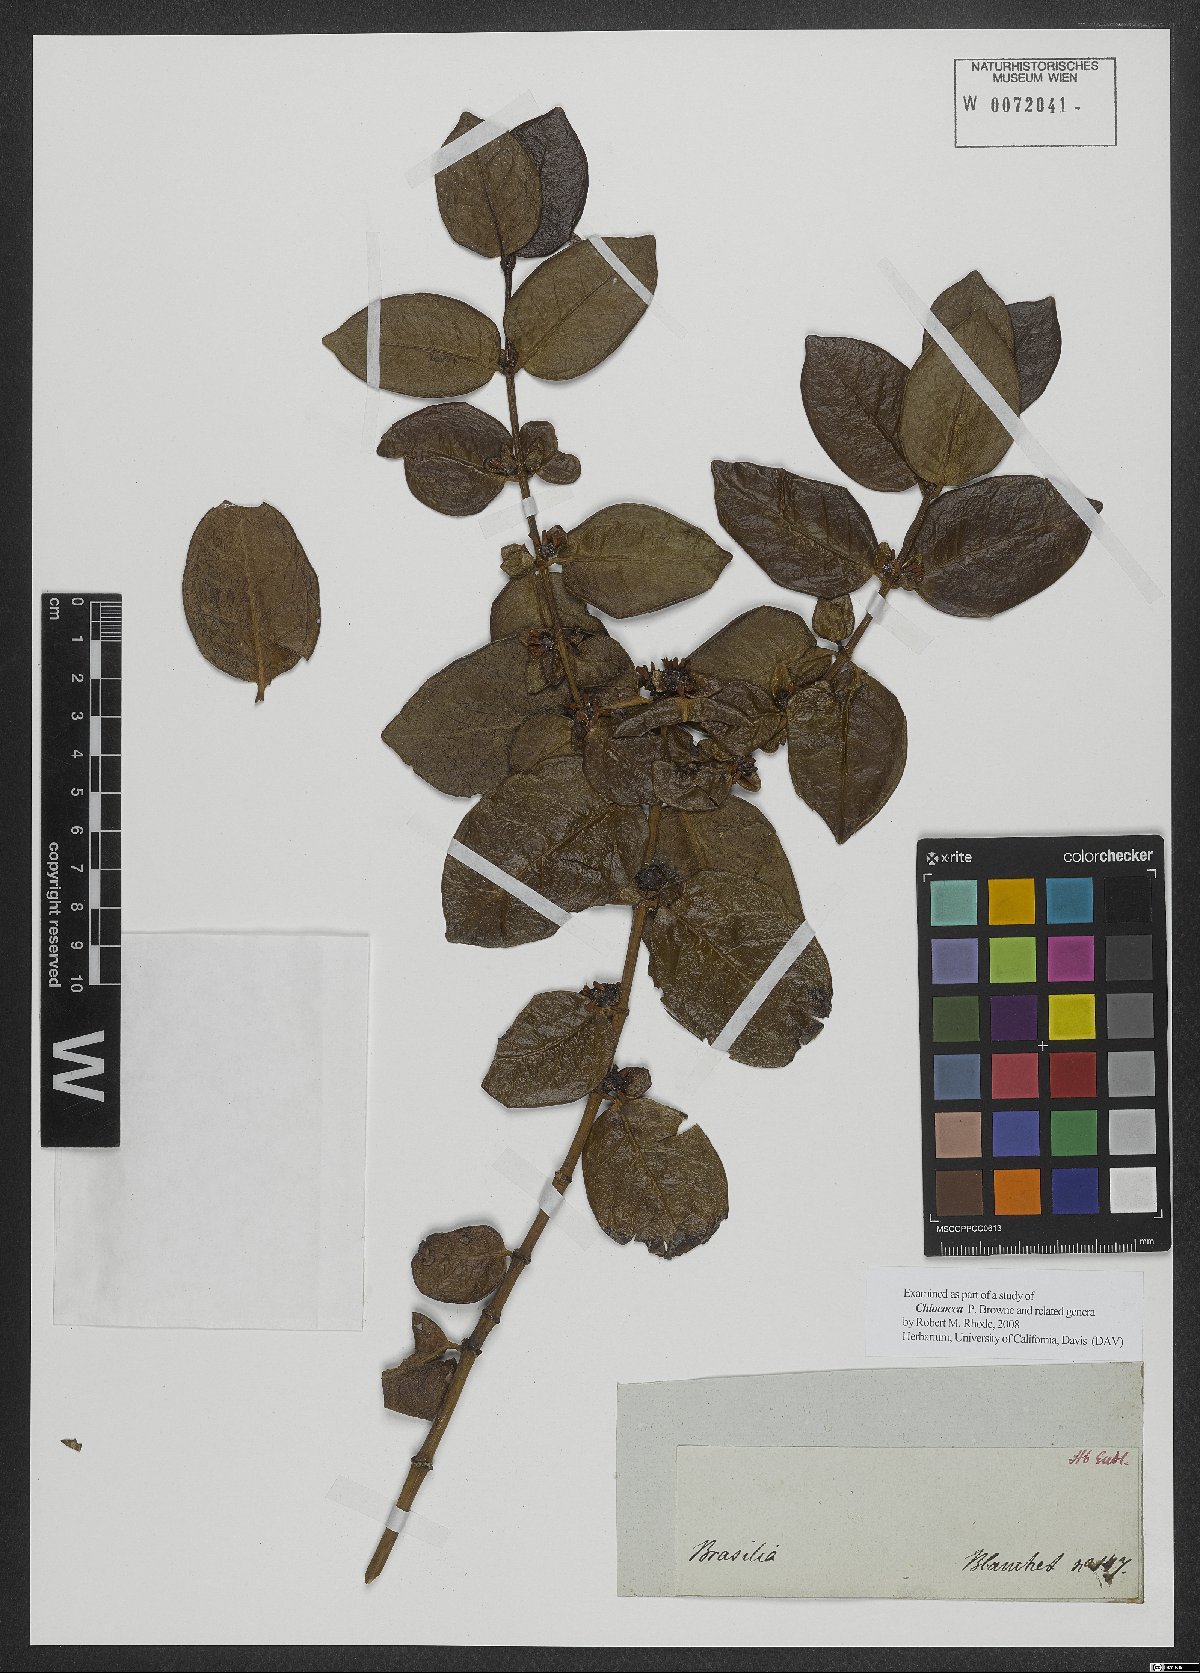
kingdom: Plantae
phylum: Tracheophyta
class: Magnoliopsida
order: Gentianales
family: Rubiaceae
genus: Chiococca
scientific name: Chiococca
